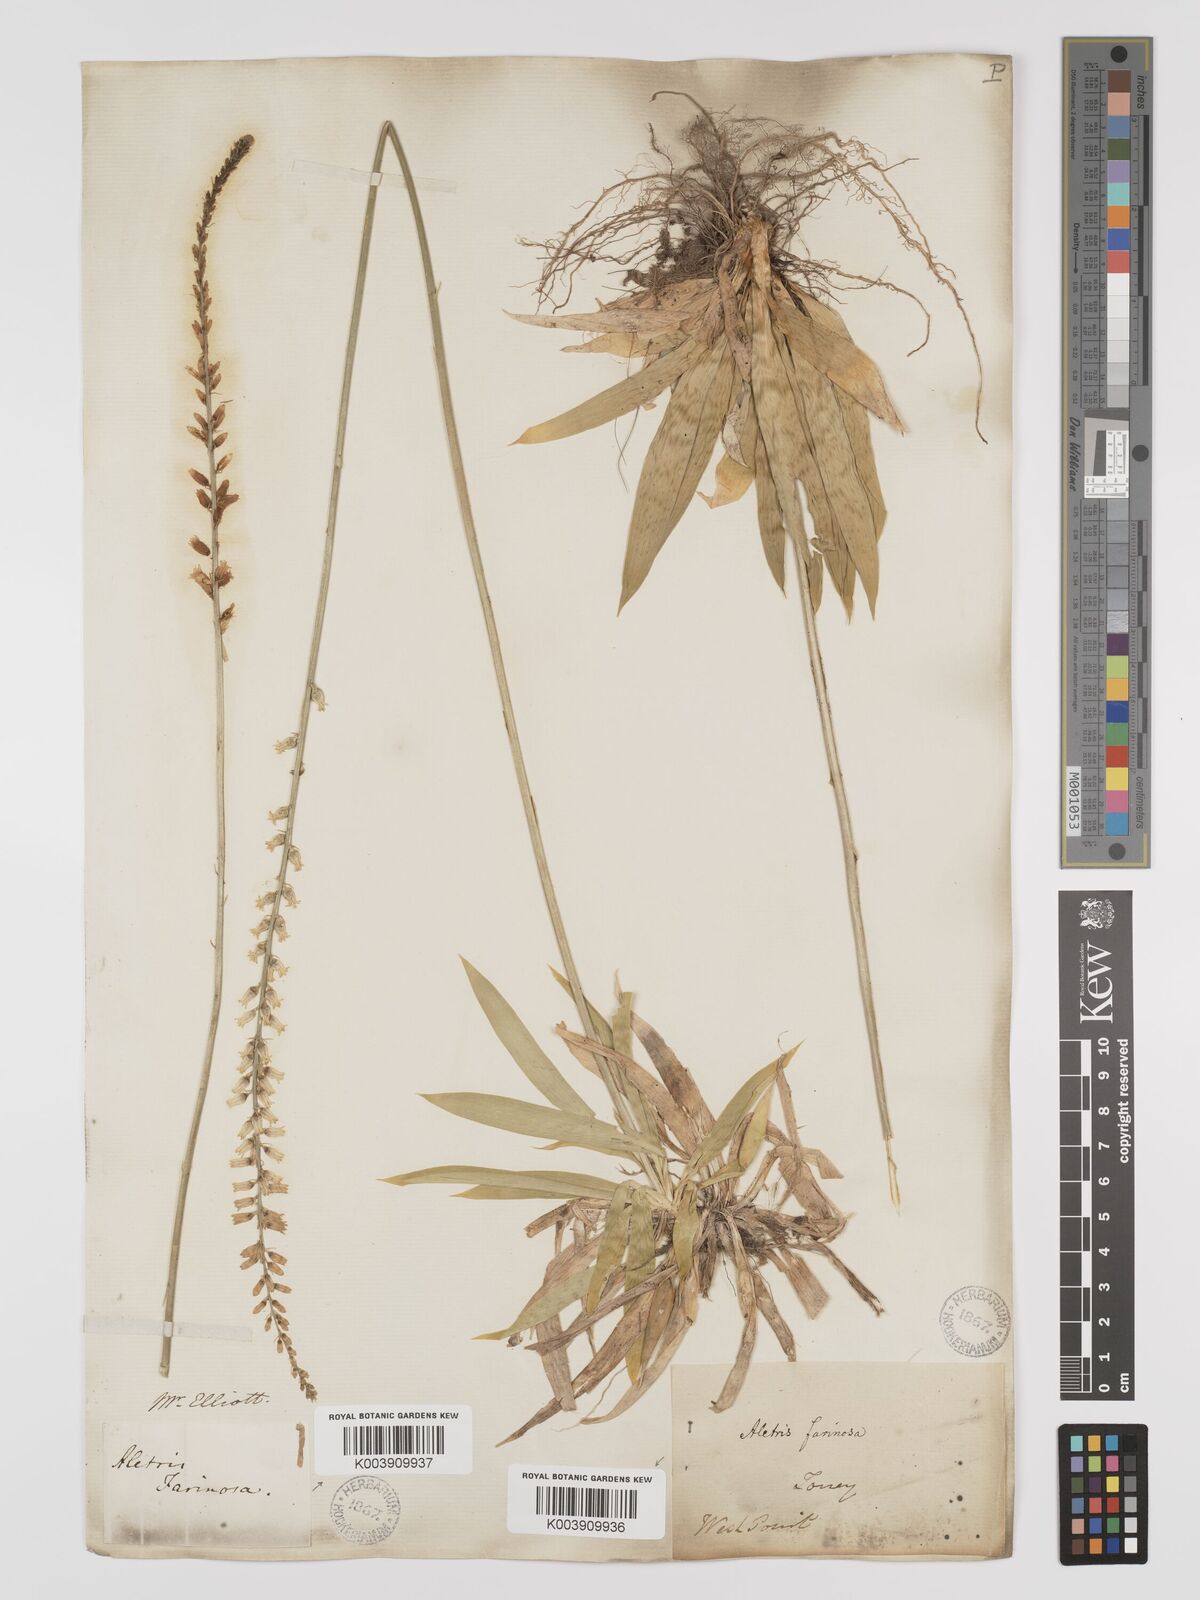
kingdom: Plantae
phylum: Tracheophyta
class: Liliopsida
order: Dioscoreales
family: Nartheciaceae
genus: Aletris
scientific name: Aletris farinosa
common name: Colicroot
